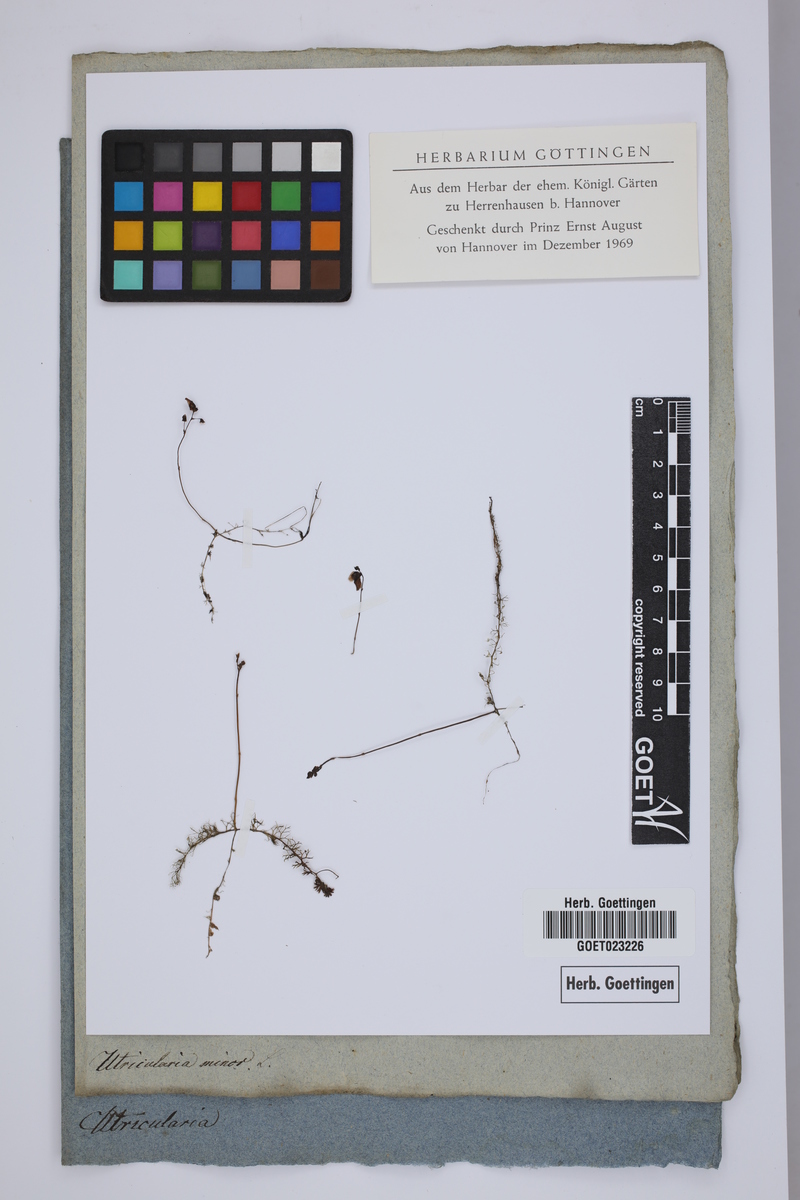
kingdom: Plantae
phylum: Tracheophyta
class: Magnoliopsida
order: Lamiales
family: Lentibulariaceae
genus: Utricularia
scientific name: Utricularia minor
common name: Lesser bladderwort
